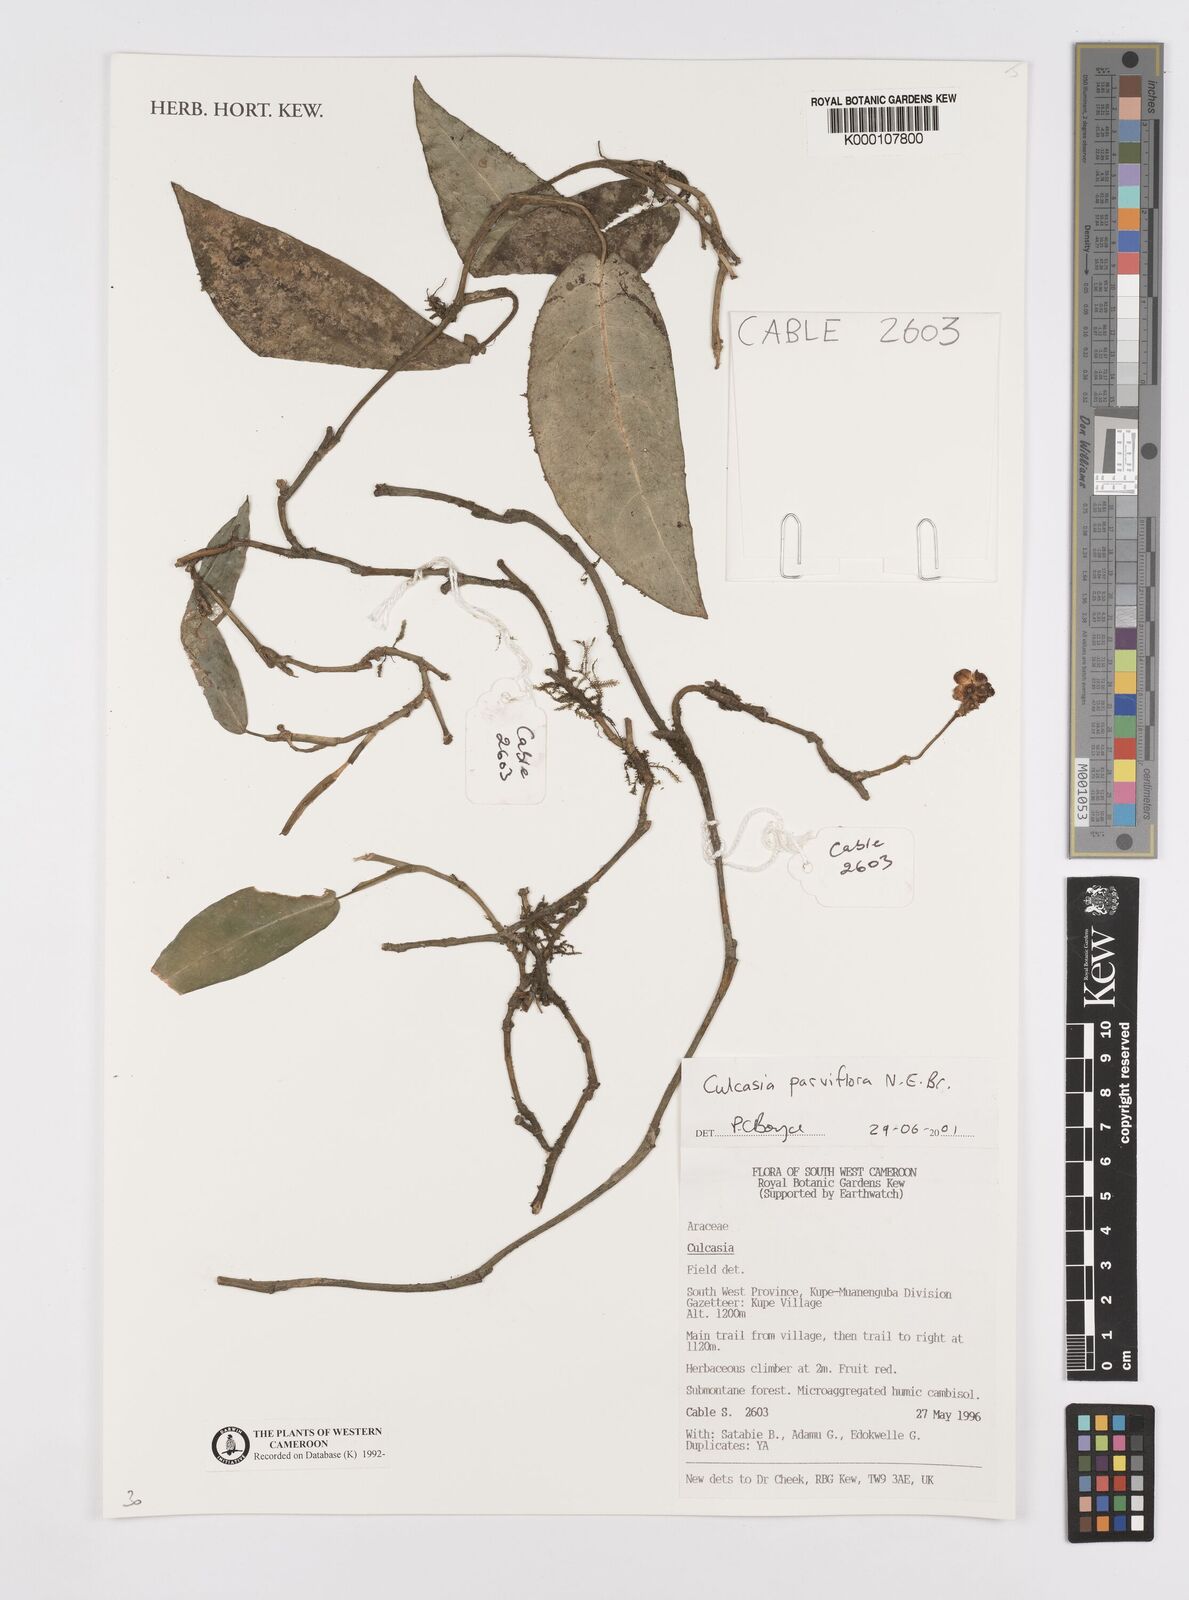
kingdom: Plantae
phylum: Tracheophyta
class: Liliopsida
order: Alismatales
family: Araceae
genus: Culcasia
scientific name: Culcasia parviflora
